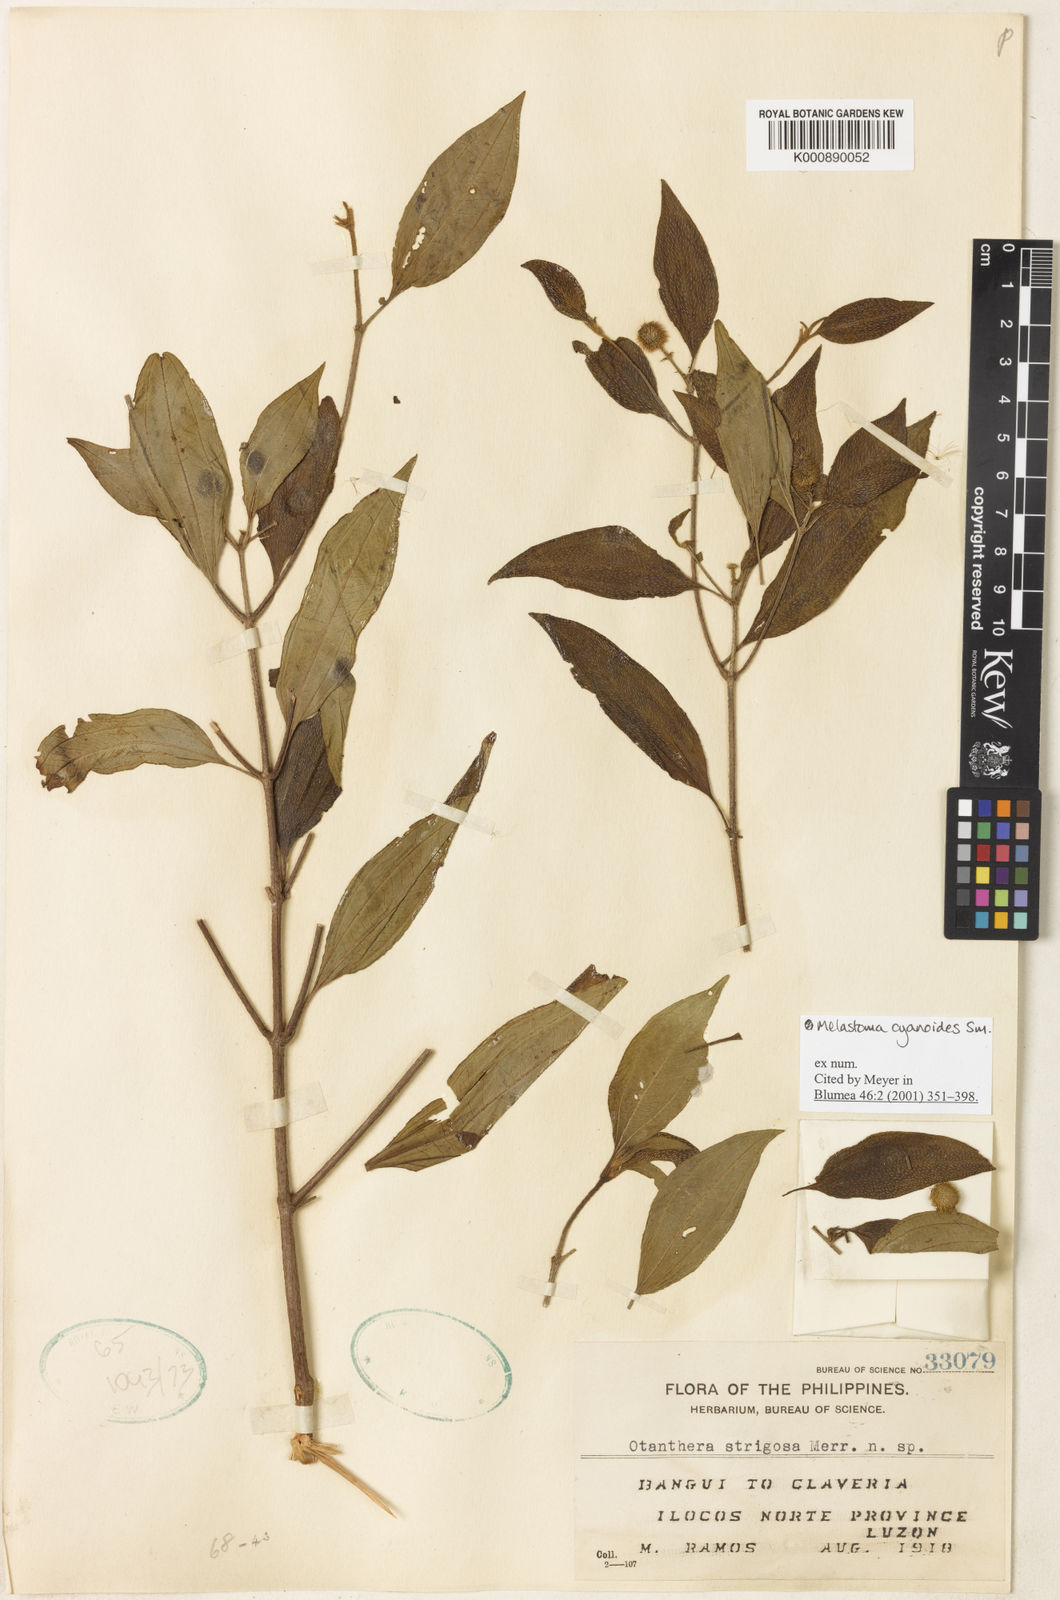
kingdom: Plantae
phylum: Tracheophyta
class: Magnoliopsida
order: Myrtales
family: Melastomataceae
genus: Melastoma
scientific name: Melastoma cyanoides
